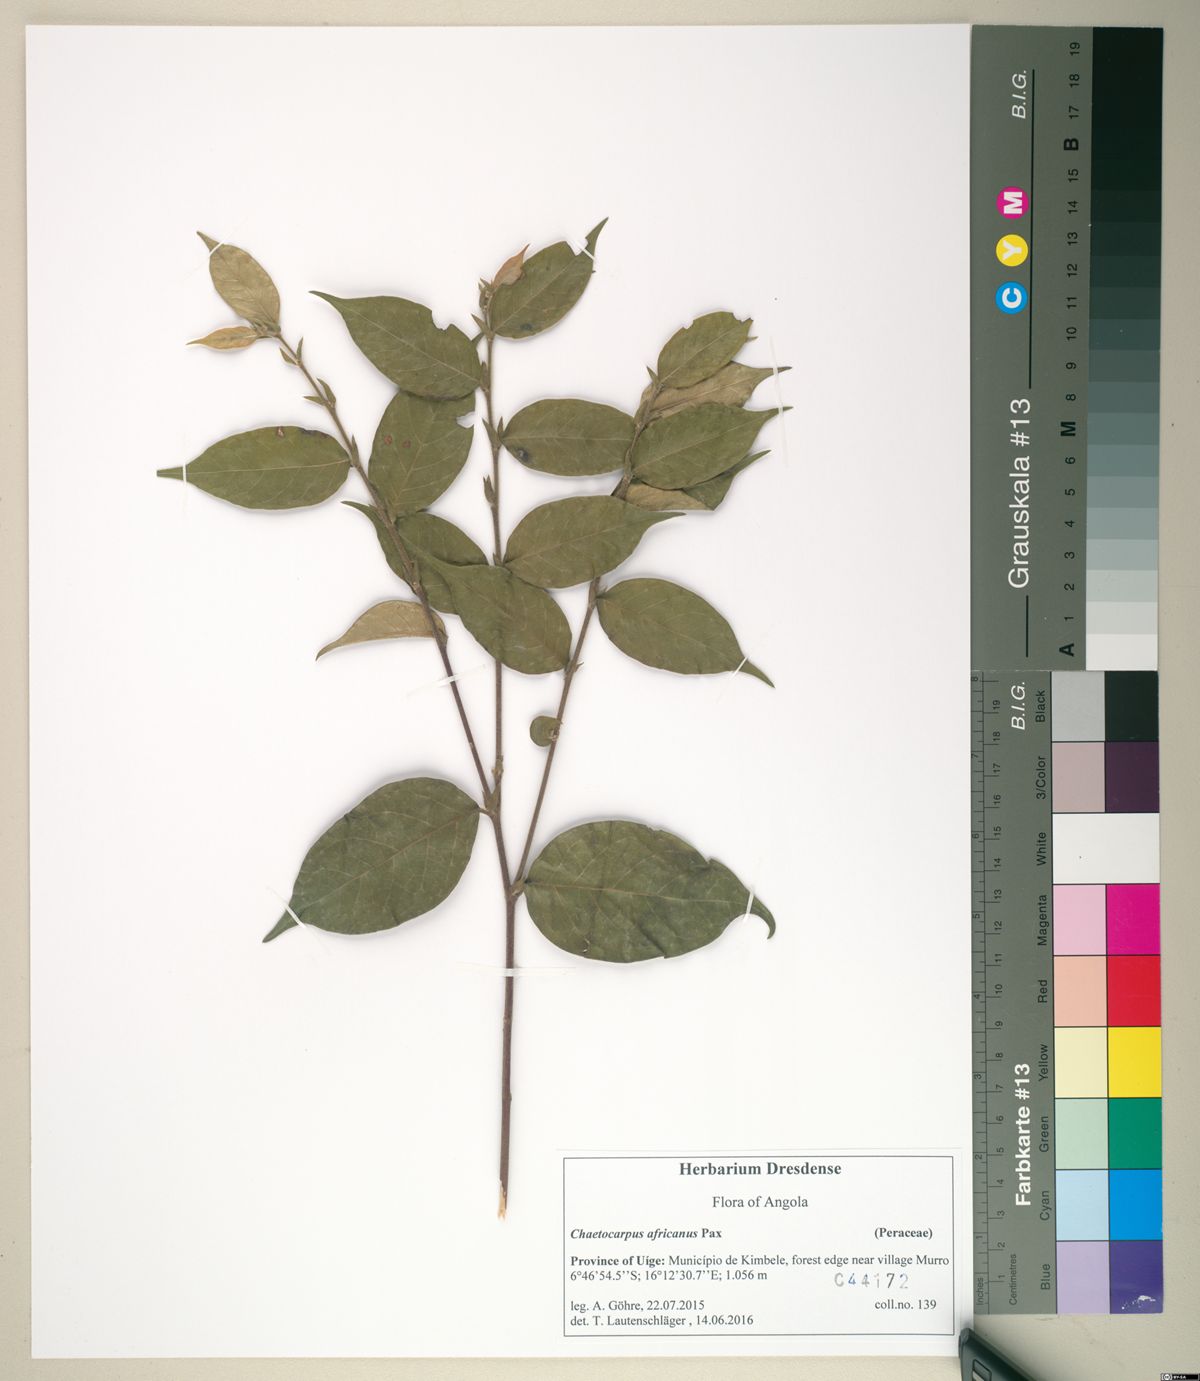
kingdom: Plantae
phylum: Tracheophyta
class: Magnoliopsida
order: Malpighiales
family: Peraceae
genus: Chaetocarpus
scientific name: Chaetocarpus africanus
